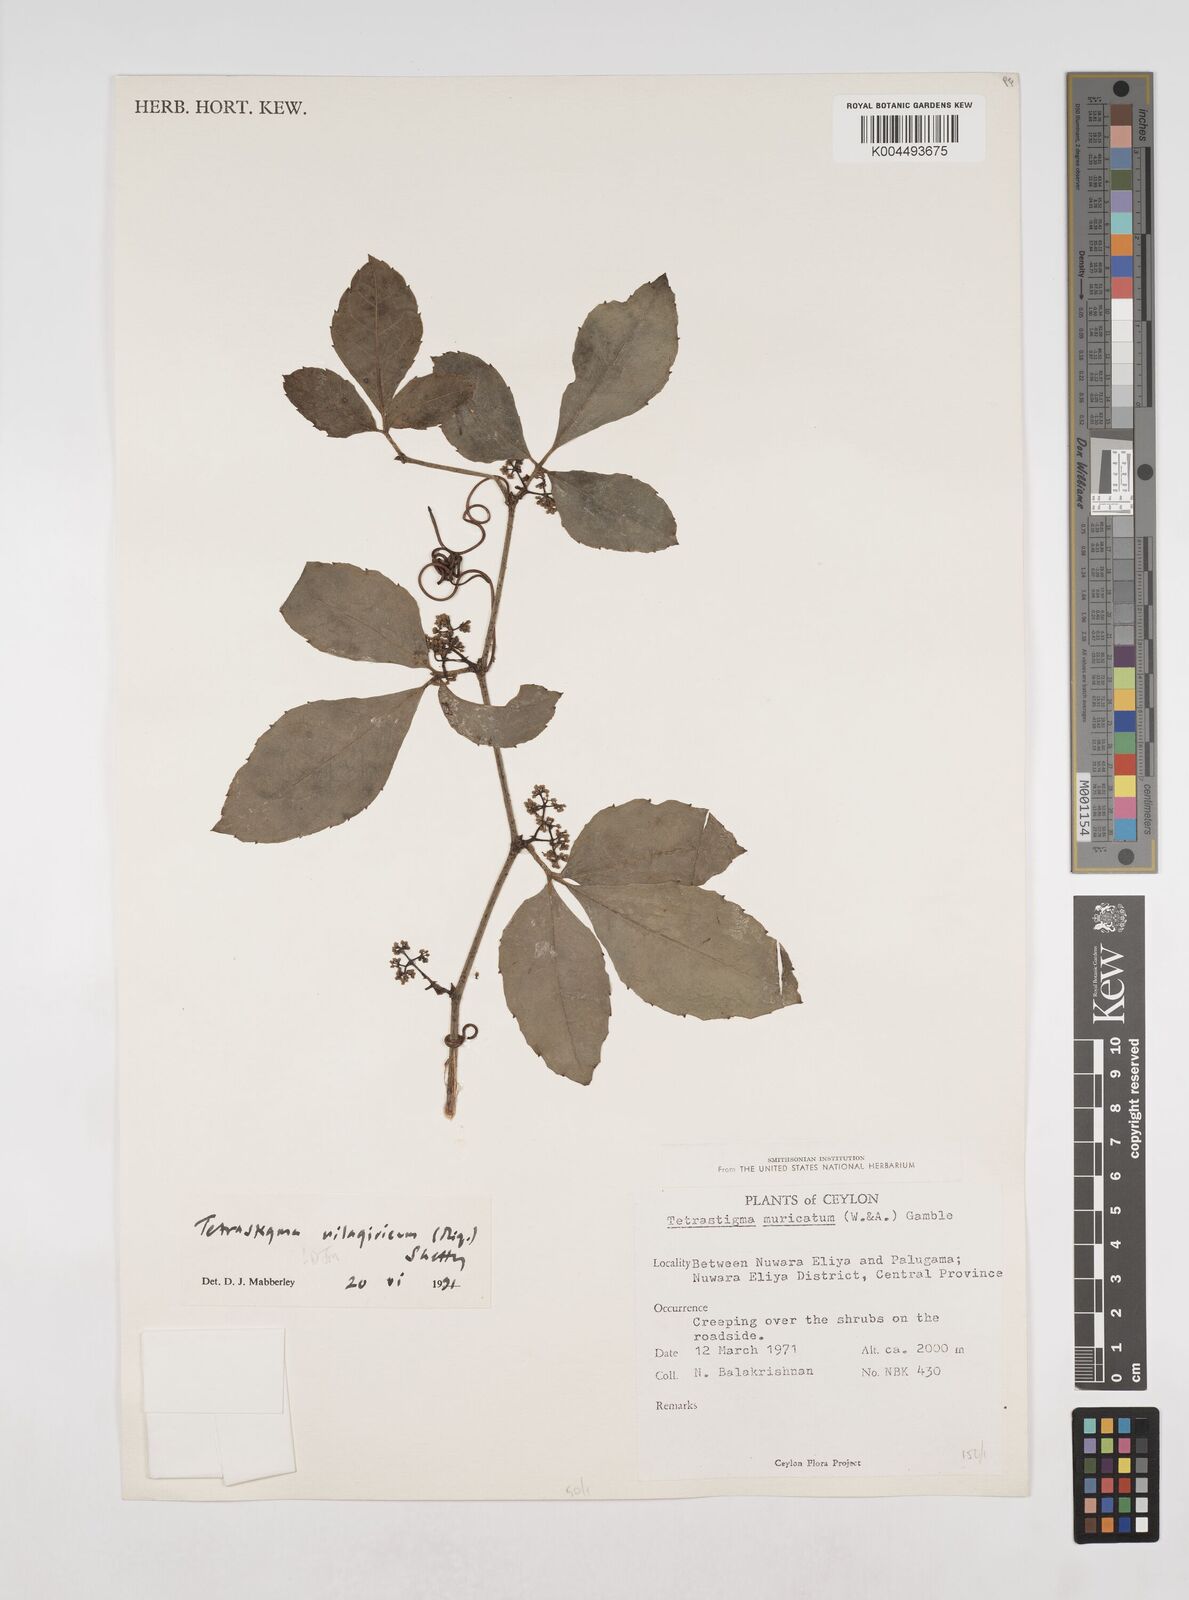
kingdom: Plantae
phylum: Tracheophyta
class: Magnoliopsida
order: Vitales
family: Vitaceae
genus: Tetrastigma
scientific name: Tetrastigma leucostaphylum
